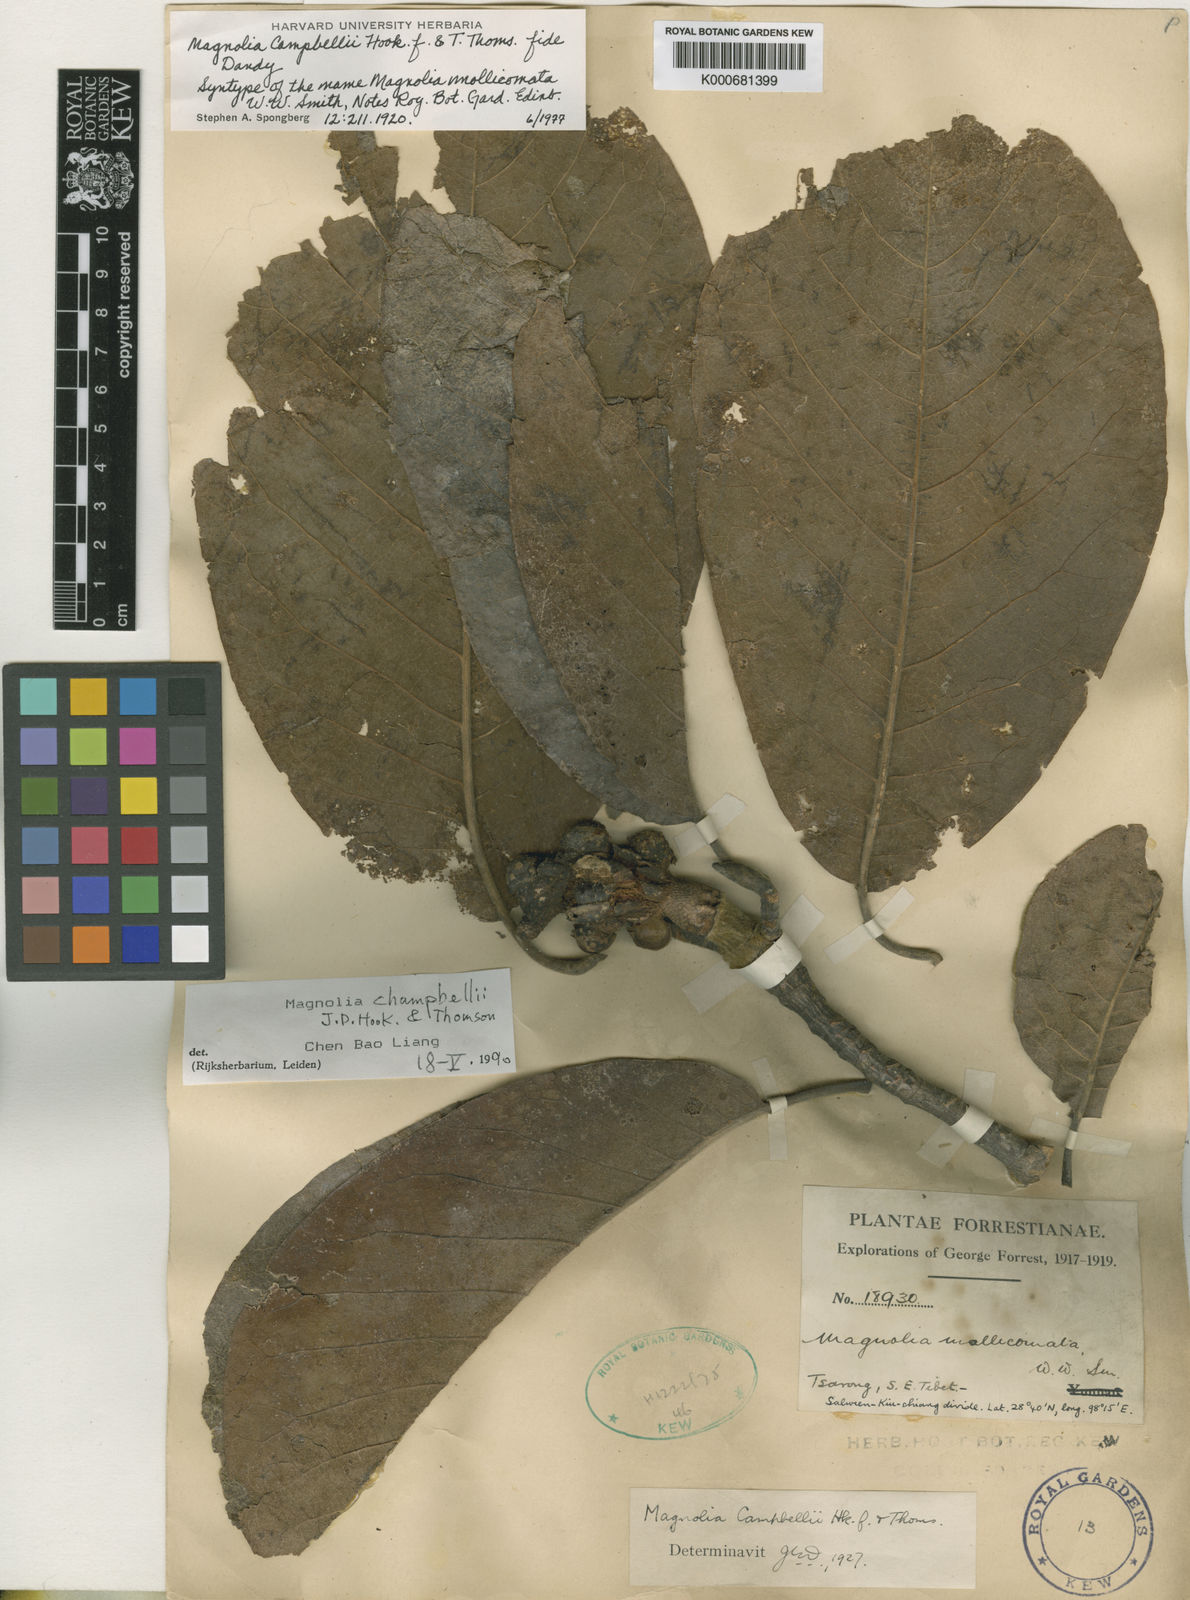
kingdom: Plantae
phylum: Tracheophyta
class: Magnoliopsida
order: Magnoliales
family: Magnoliaceae
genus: Magnolia
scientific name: Magnolia campbellii
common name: Campbell's magnolia
